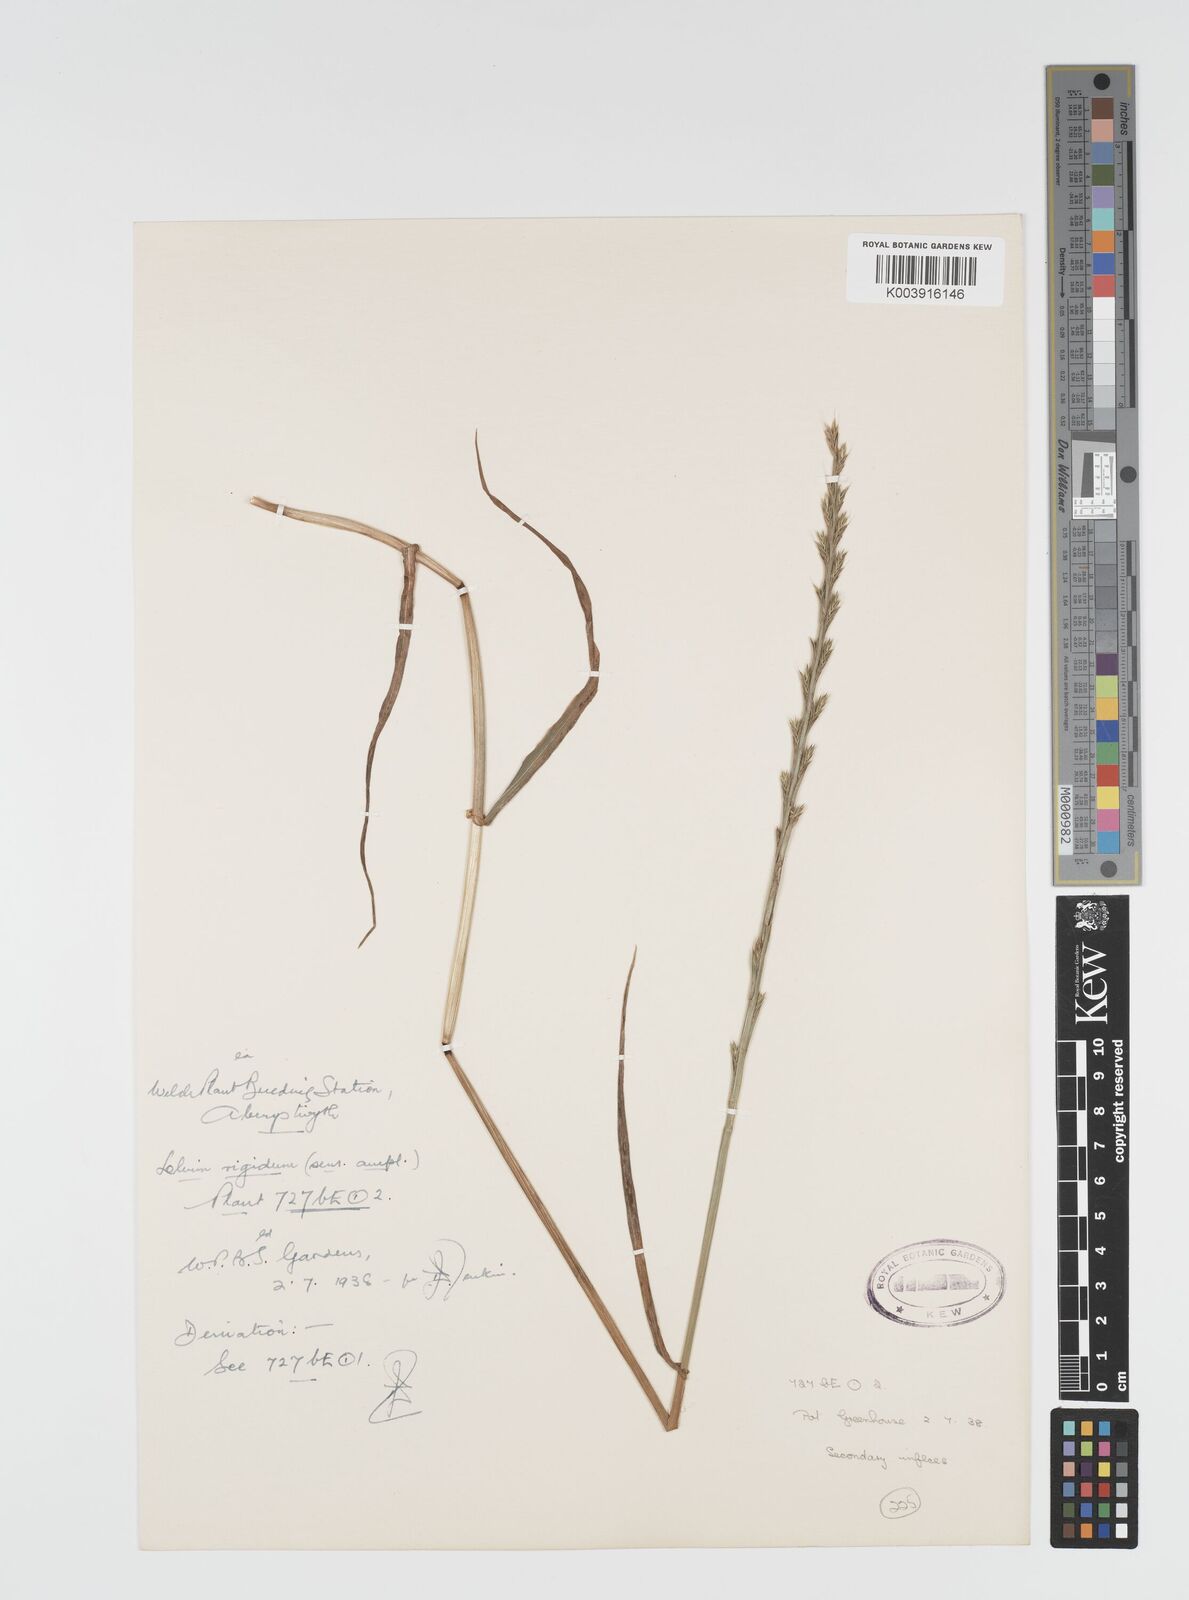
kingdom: Plantae
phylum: Tracheophyta
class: Liliopsida
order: Poales
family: Poaceae
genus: Lolium
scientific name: Lolium rigidum
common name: Wimmera ryegrass
